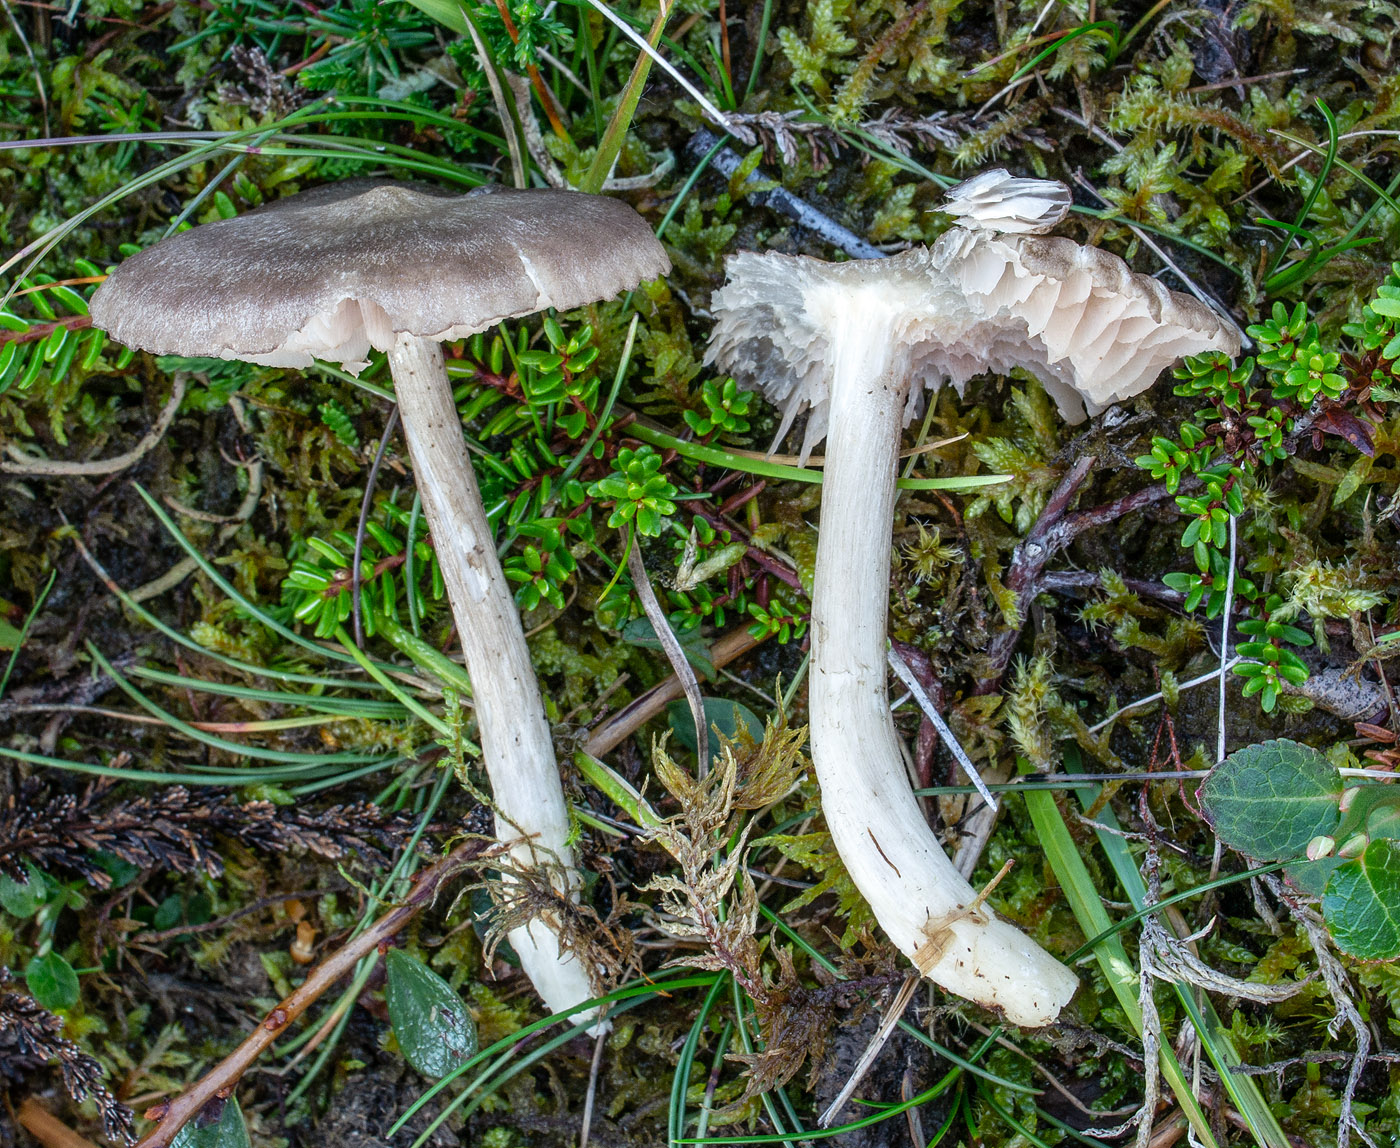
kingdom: Fungi
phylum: Basidiomycota
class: Agaricomycetes
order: Agaricales
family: Entolomataceae
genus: Entoloma
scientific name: Entoloma jubatum
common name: ruskællet rødblad
